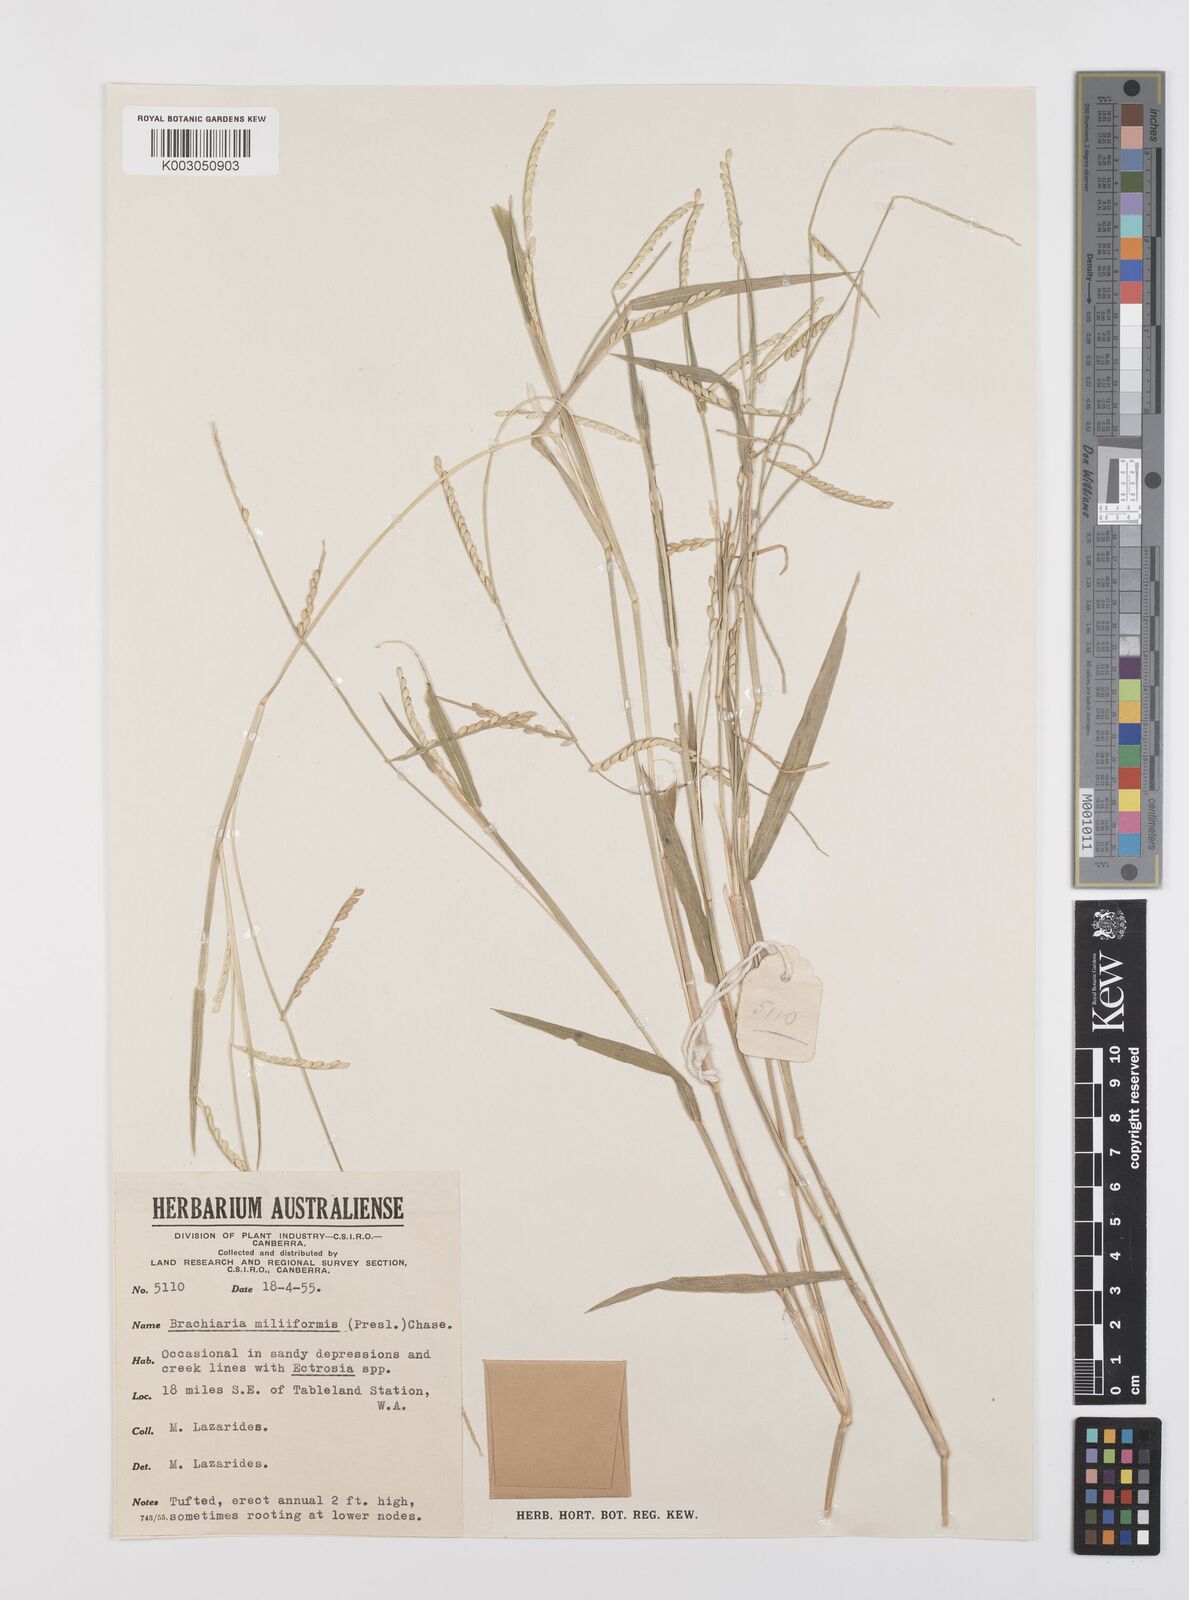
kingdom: Plantae
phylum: Tracheophyta
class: Liliopsida
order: Poales
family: Poaceae
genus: Urochloa
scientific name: Urochloa subquadripara
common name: Armgrass millet
